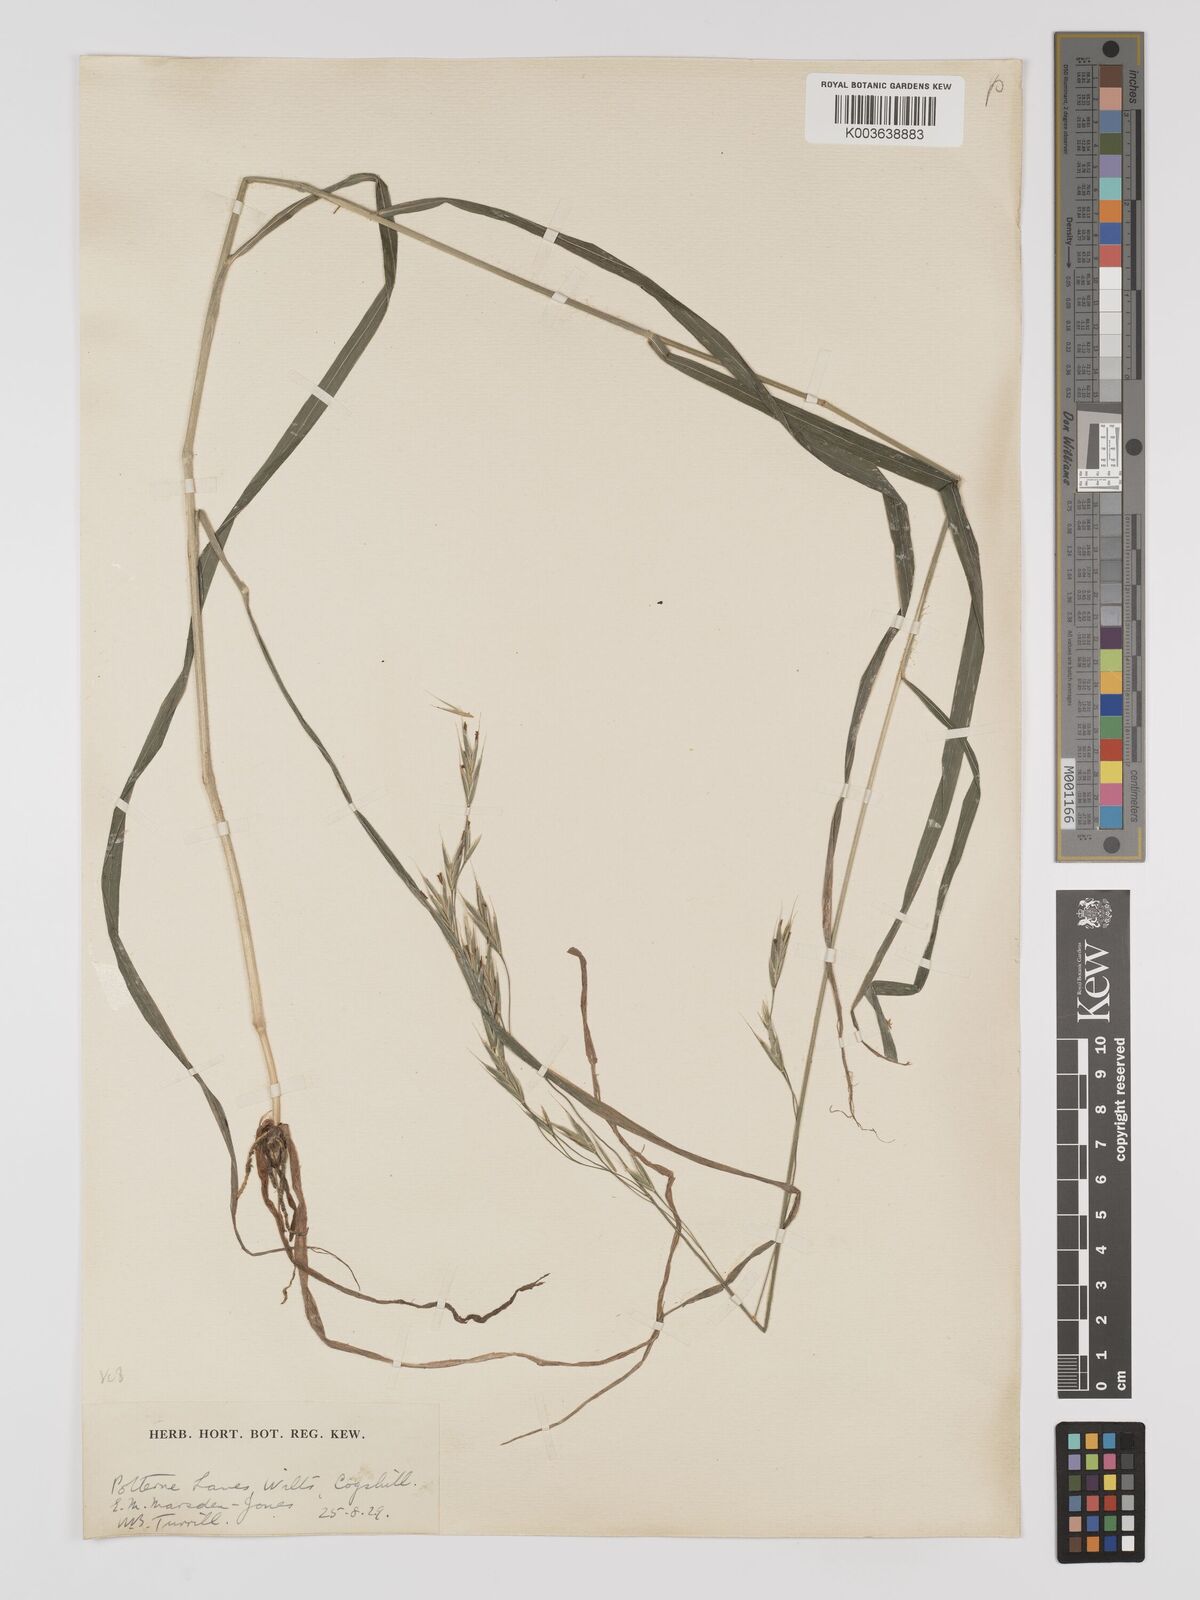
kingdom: Plantae
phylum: Tracheophyta
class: Liliopsida
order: Poales
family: Poaceae
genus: Brachypodium
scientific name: Brachypodium retusum
